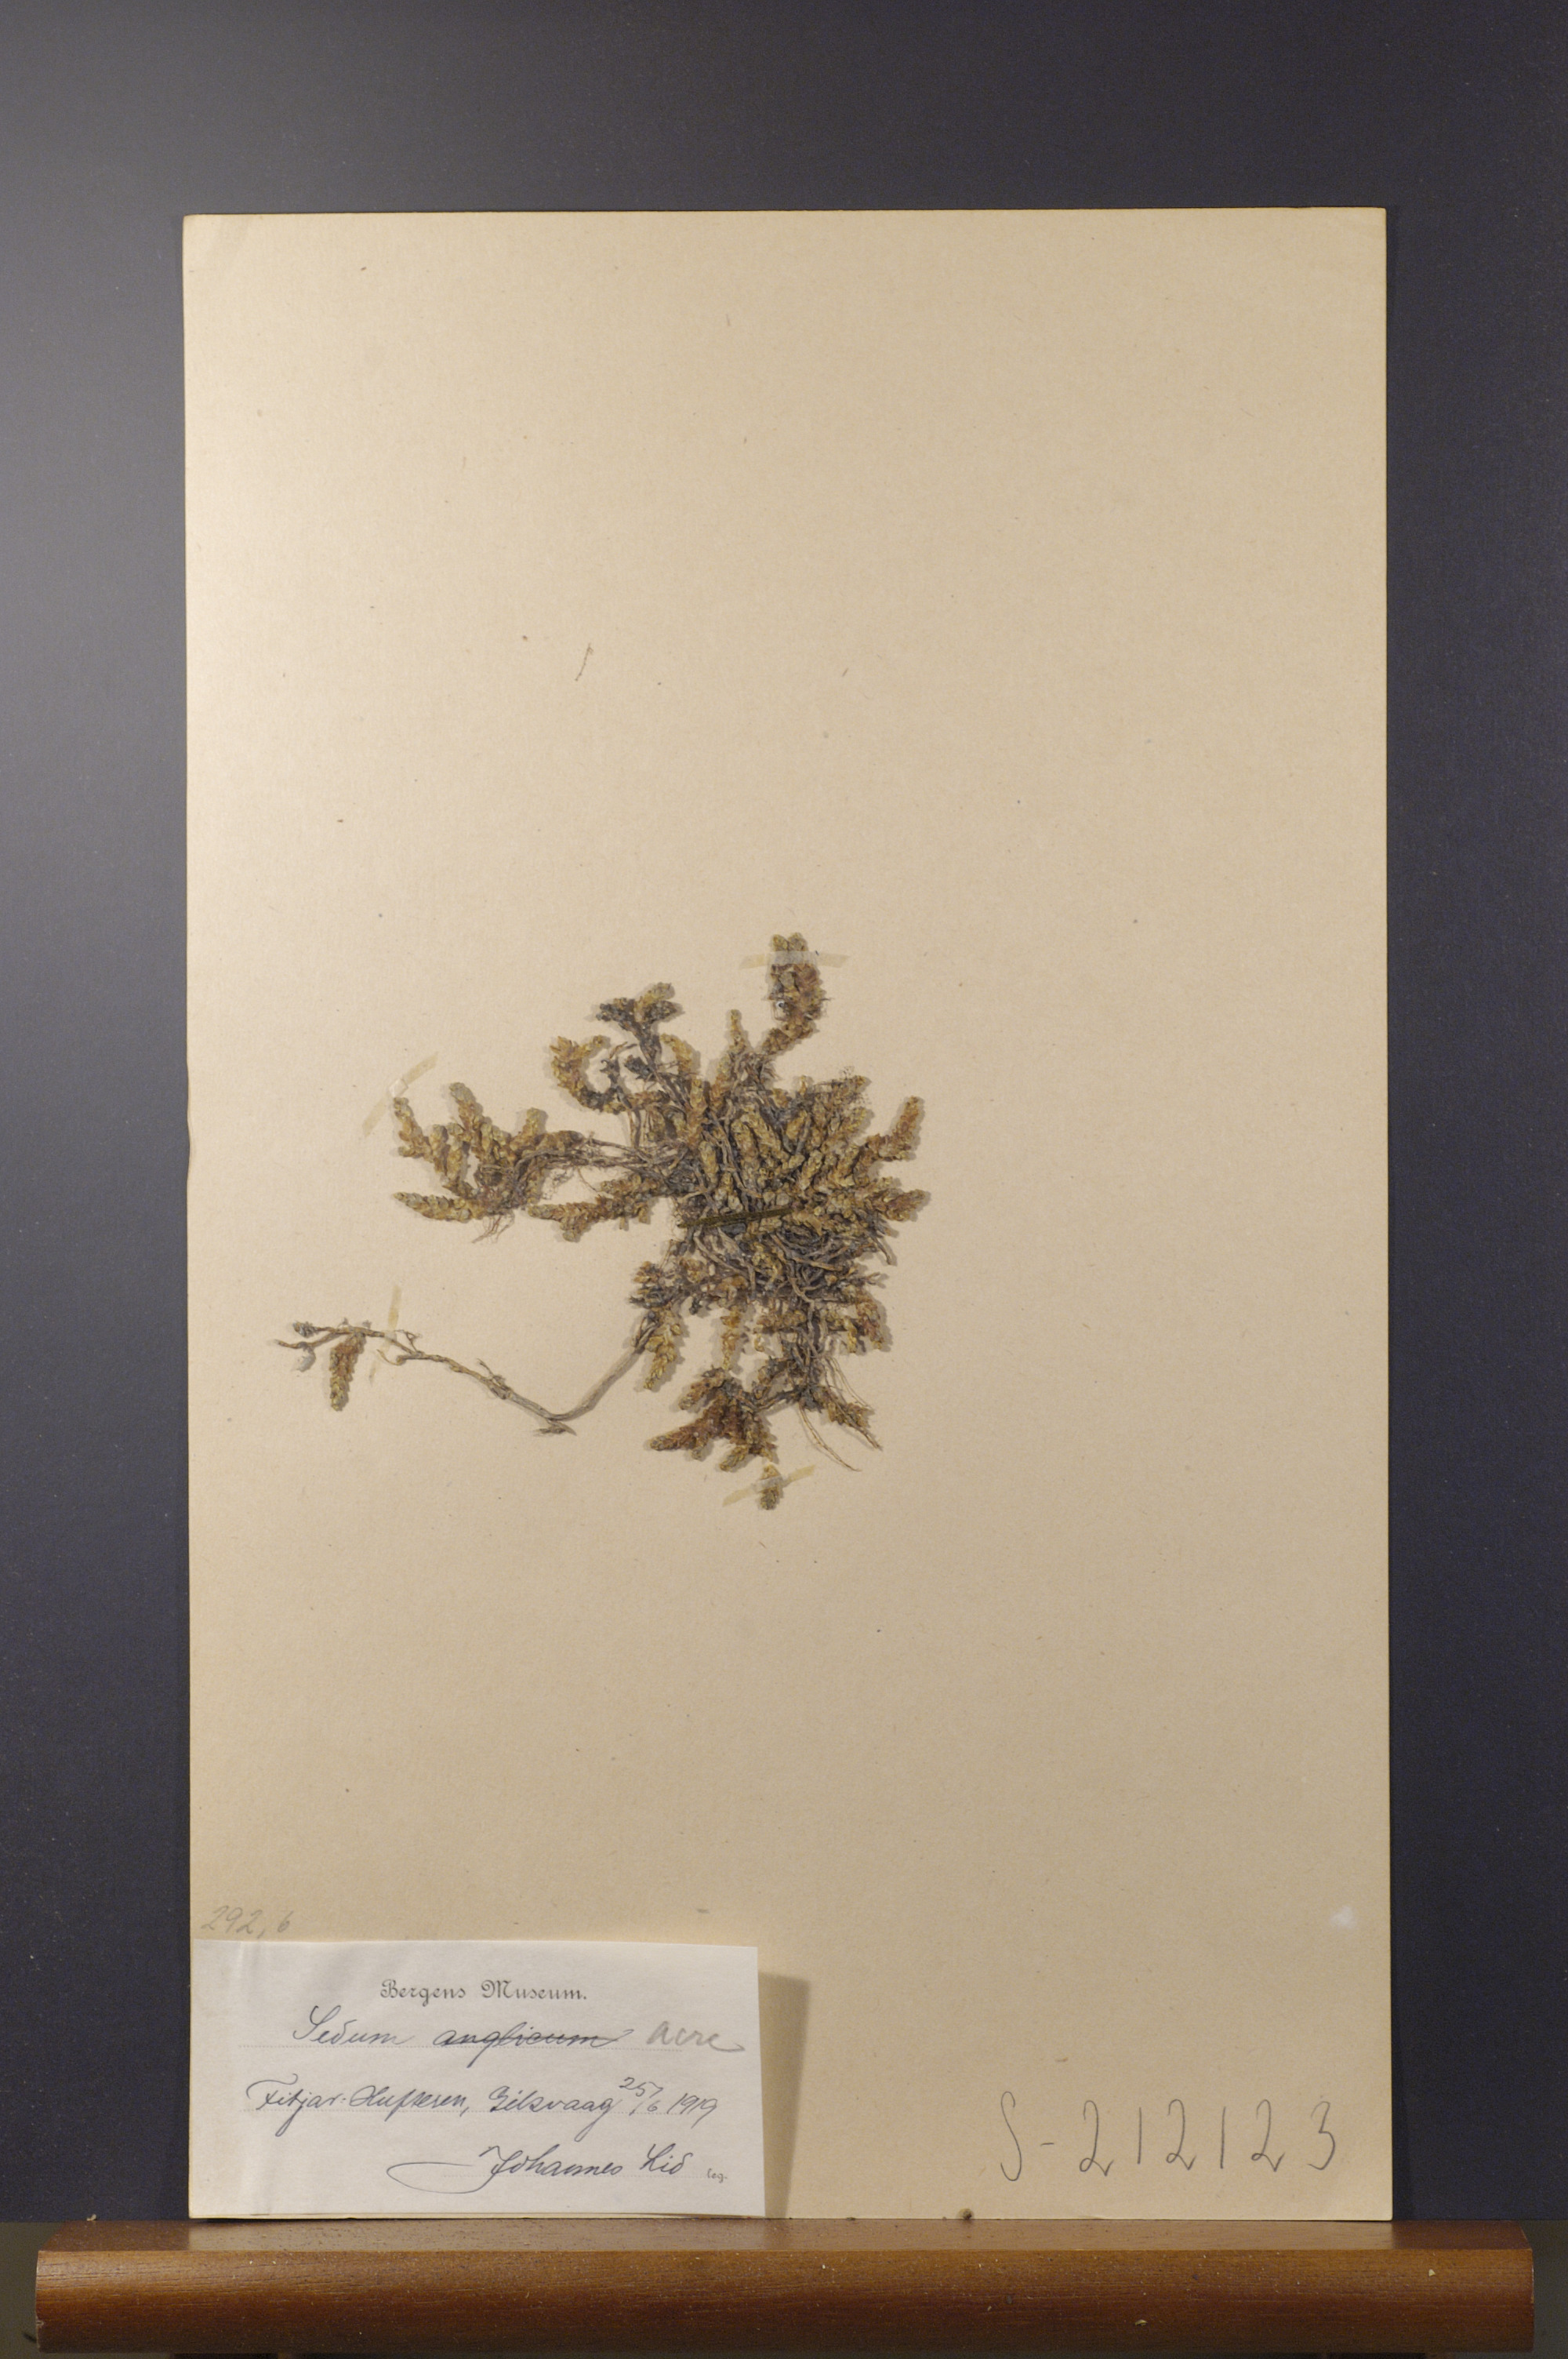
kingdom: Plantae
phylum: Tracheophyta
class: Magnoliopsida
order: Saxifragales
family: Crassulaceae
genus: Sedum
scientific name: Sedum acre
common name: Biting stonecrop
